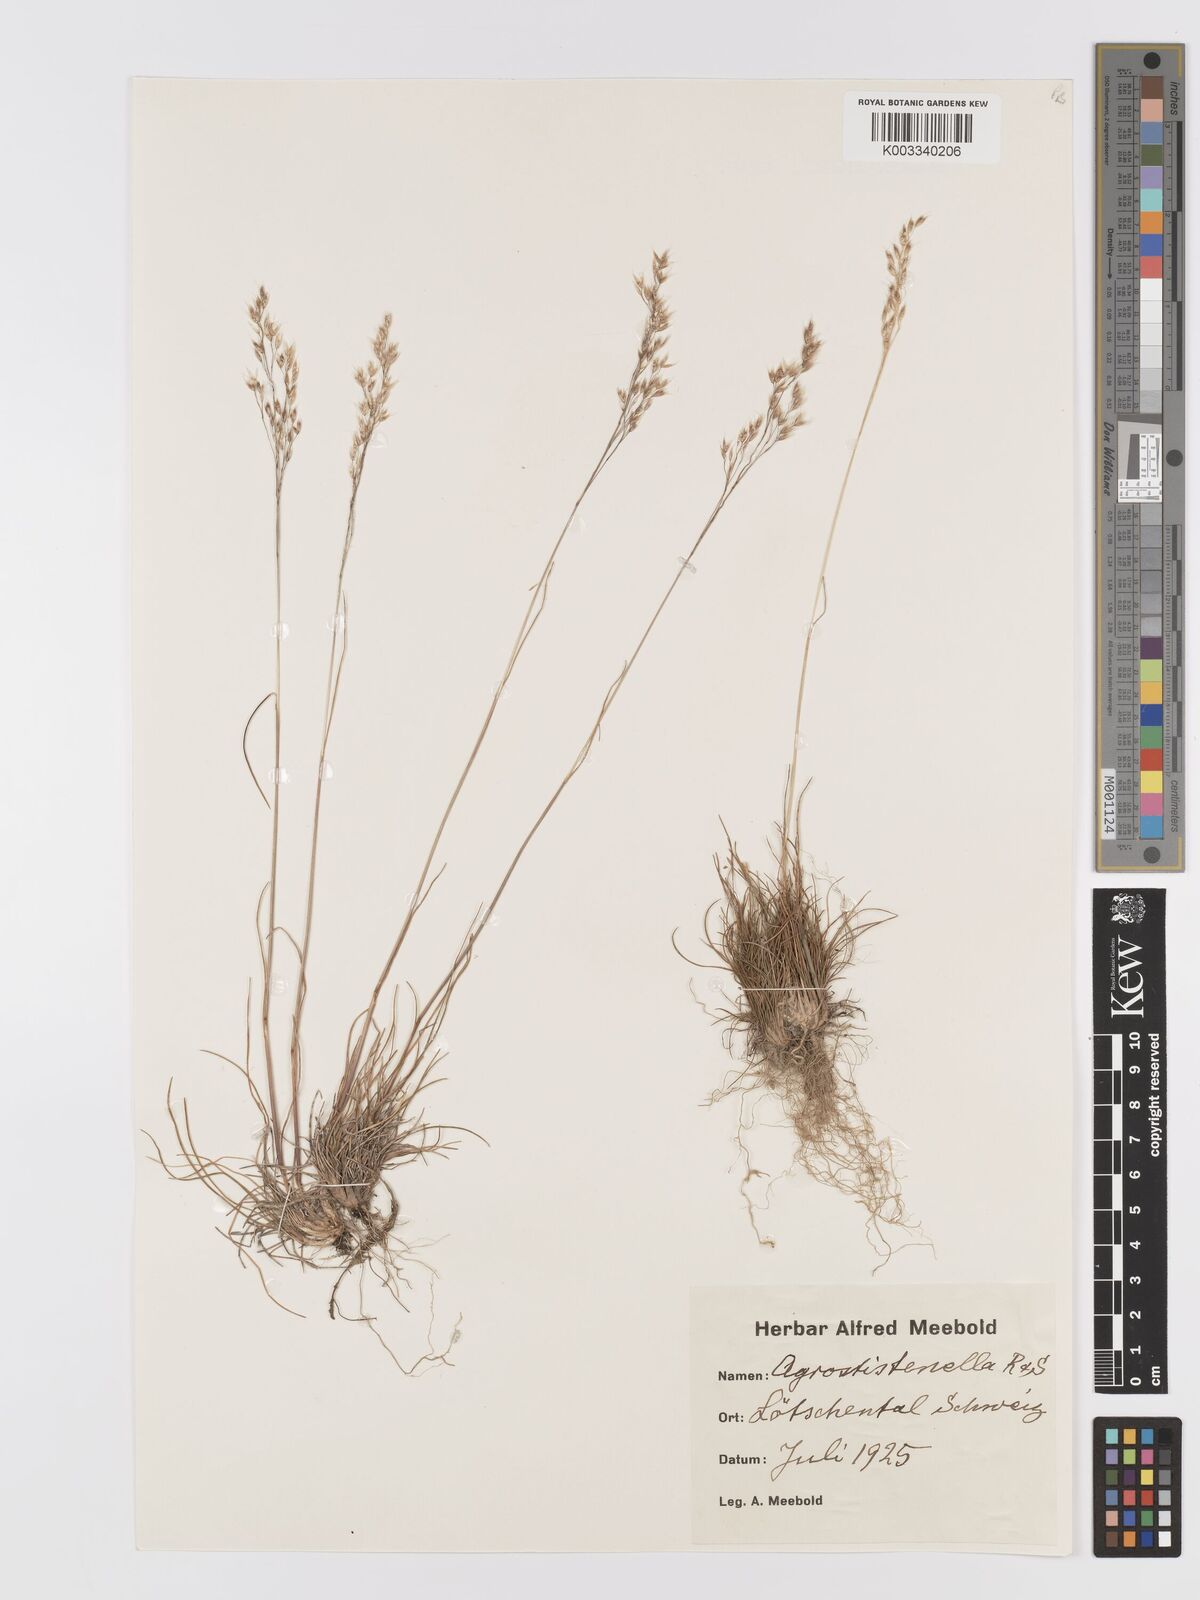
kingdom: Plantae
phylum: Tracheophyta
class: Liliopsida
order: Poales
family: Poaceae
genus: Agrostis
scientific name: Agrostis schraderiana
